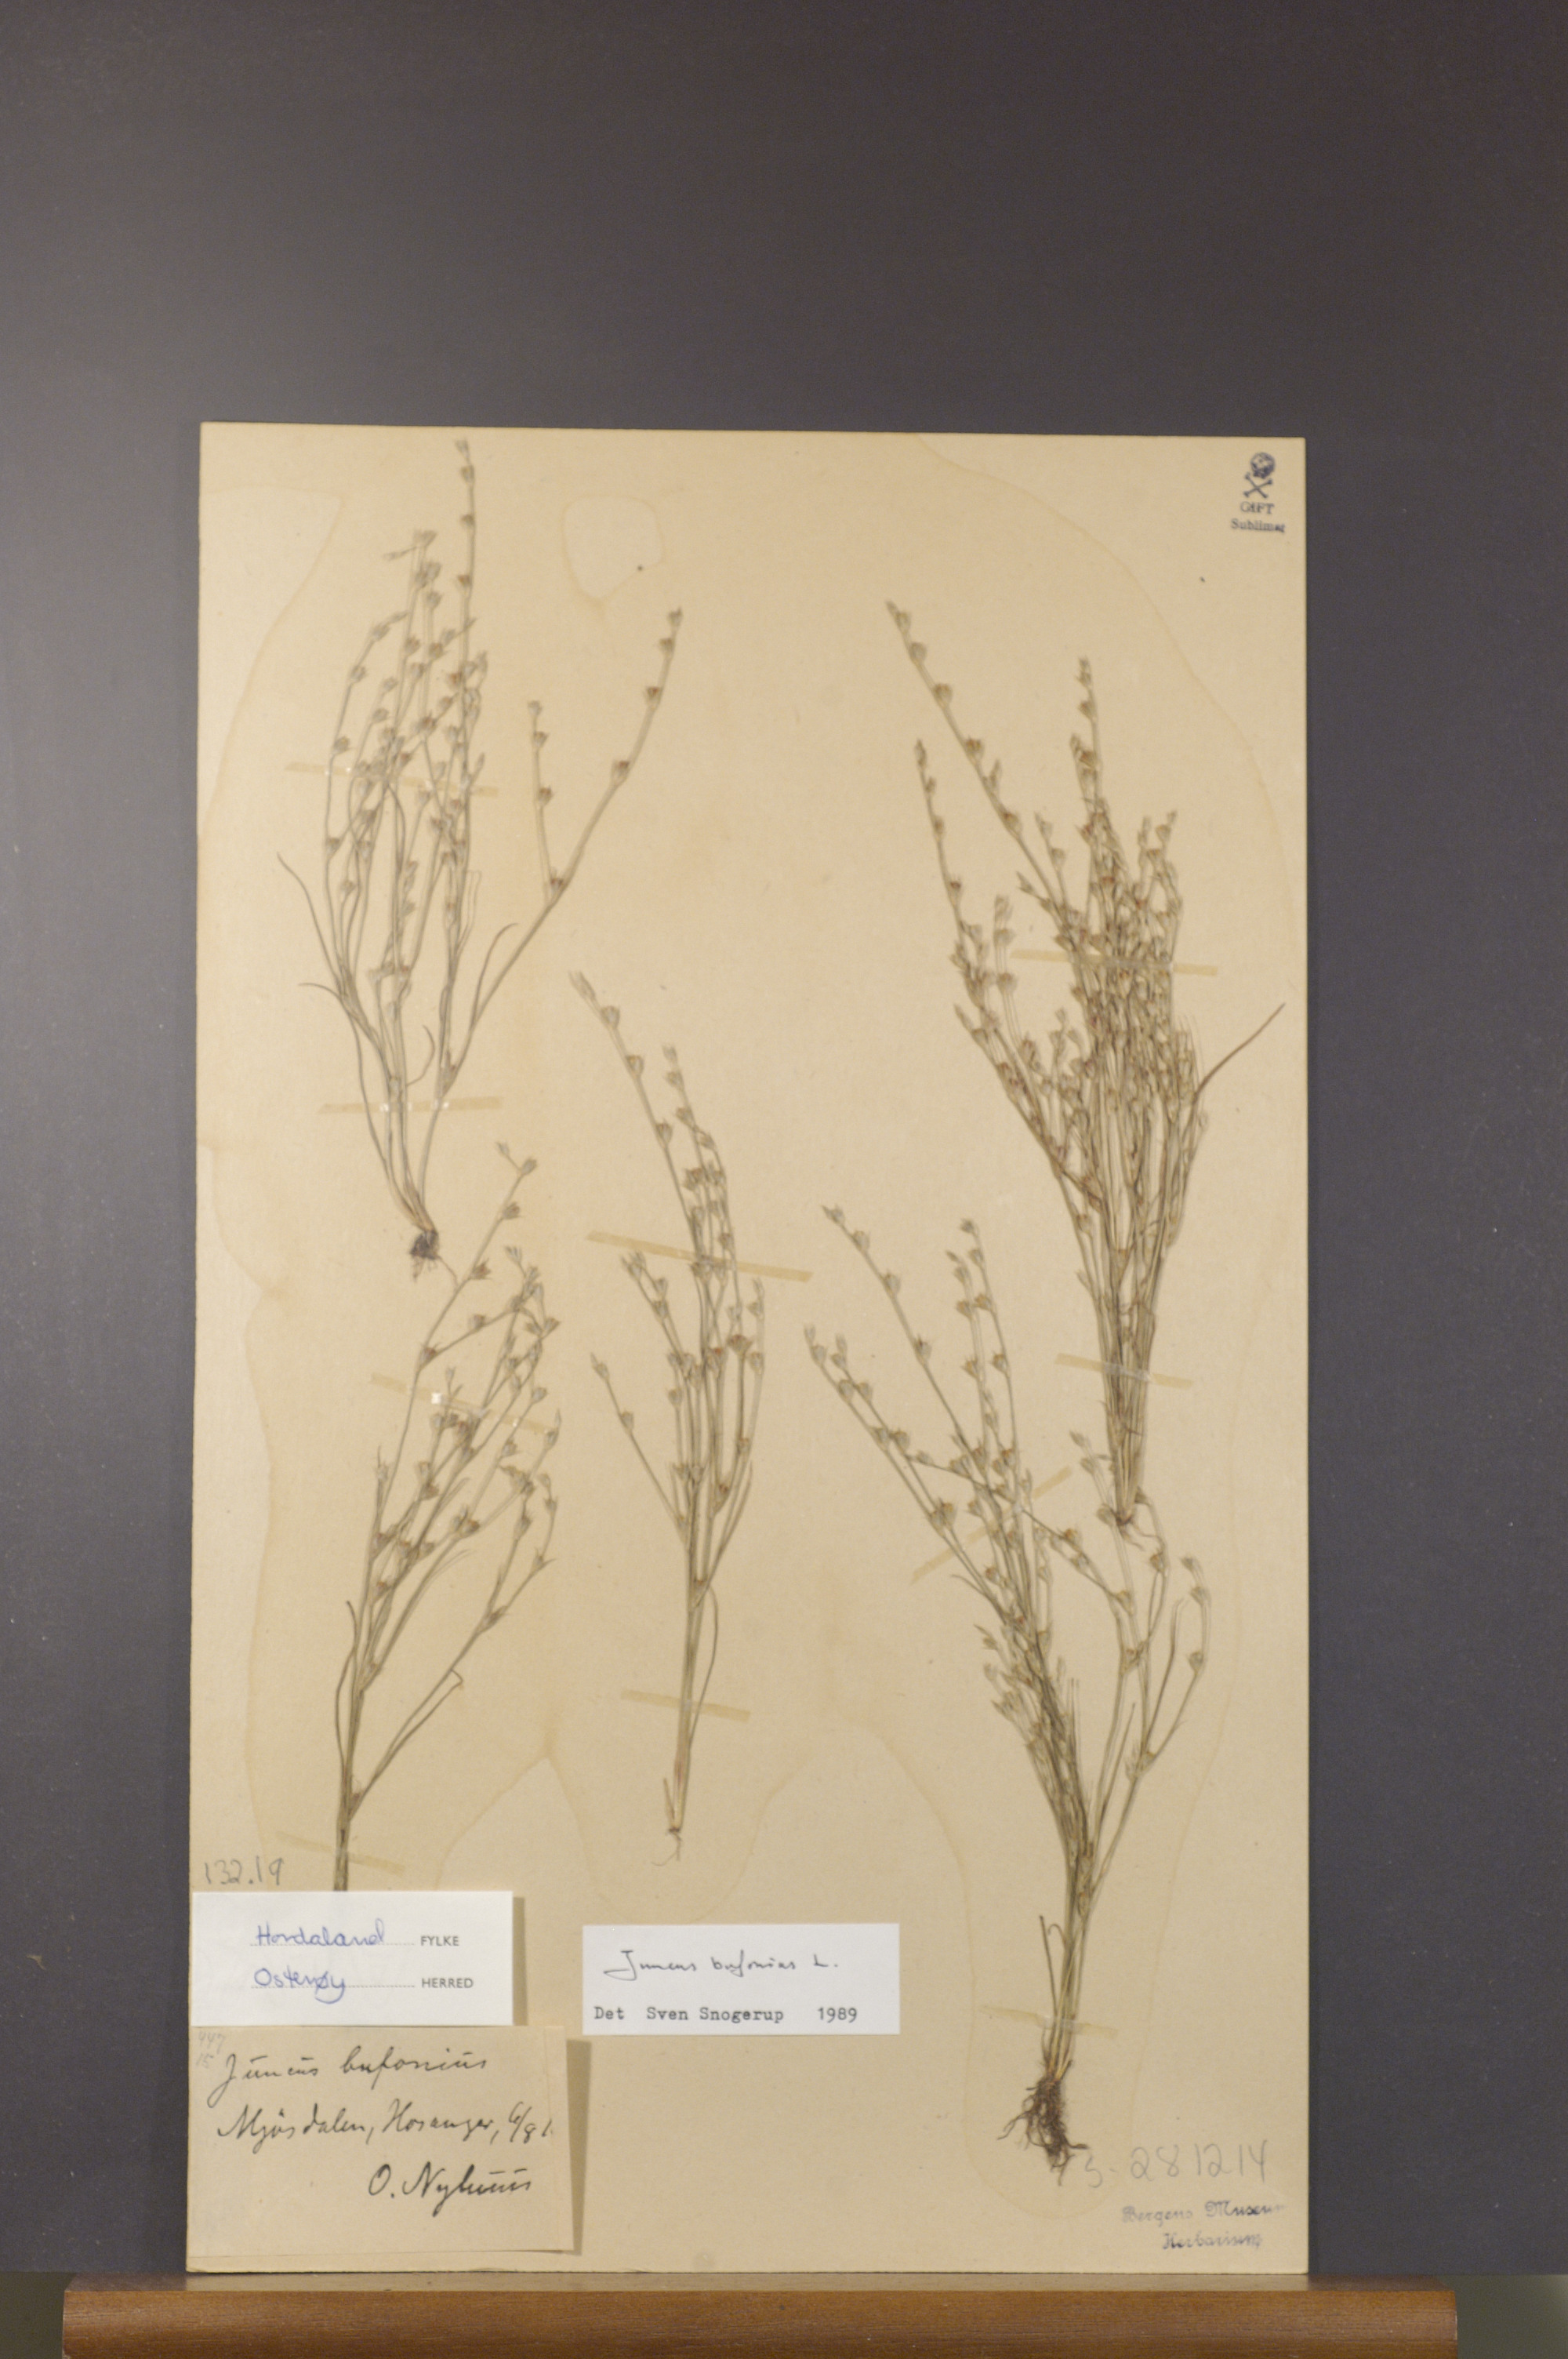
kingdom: Plantae
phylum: Tracheophyta
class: Liliopsida
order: Poales
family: Juncaceae
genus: Juncus
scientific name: Juncus bufonius
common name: Toad rush
